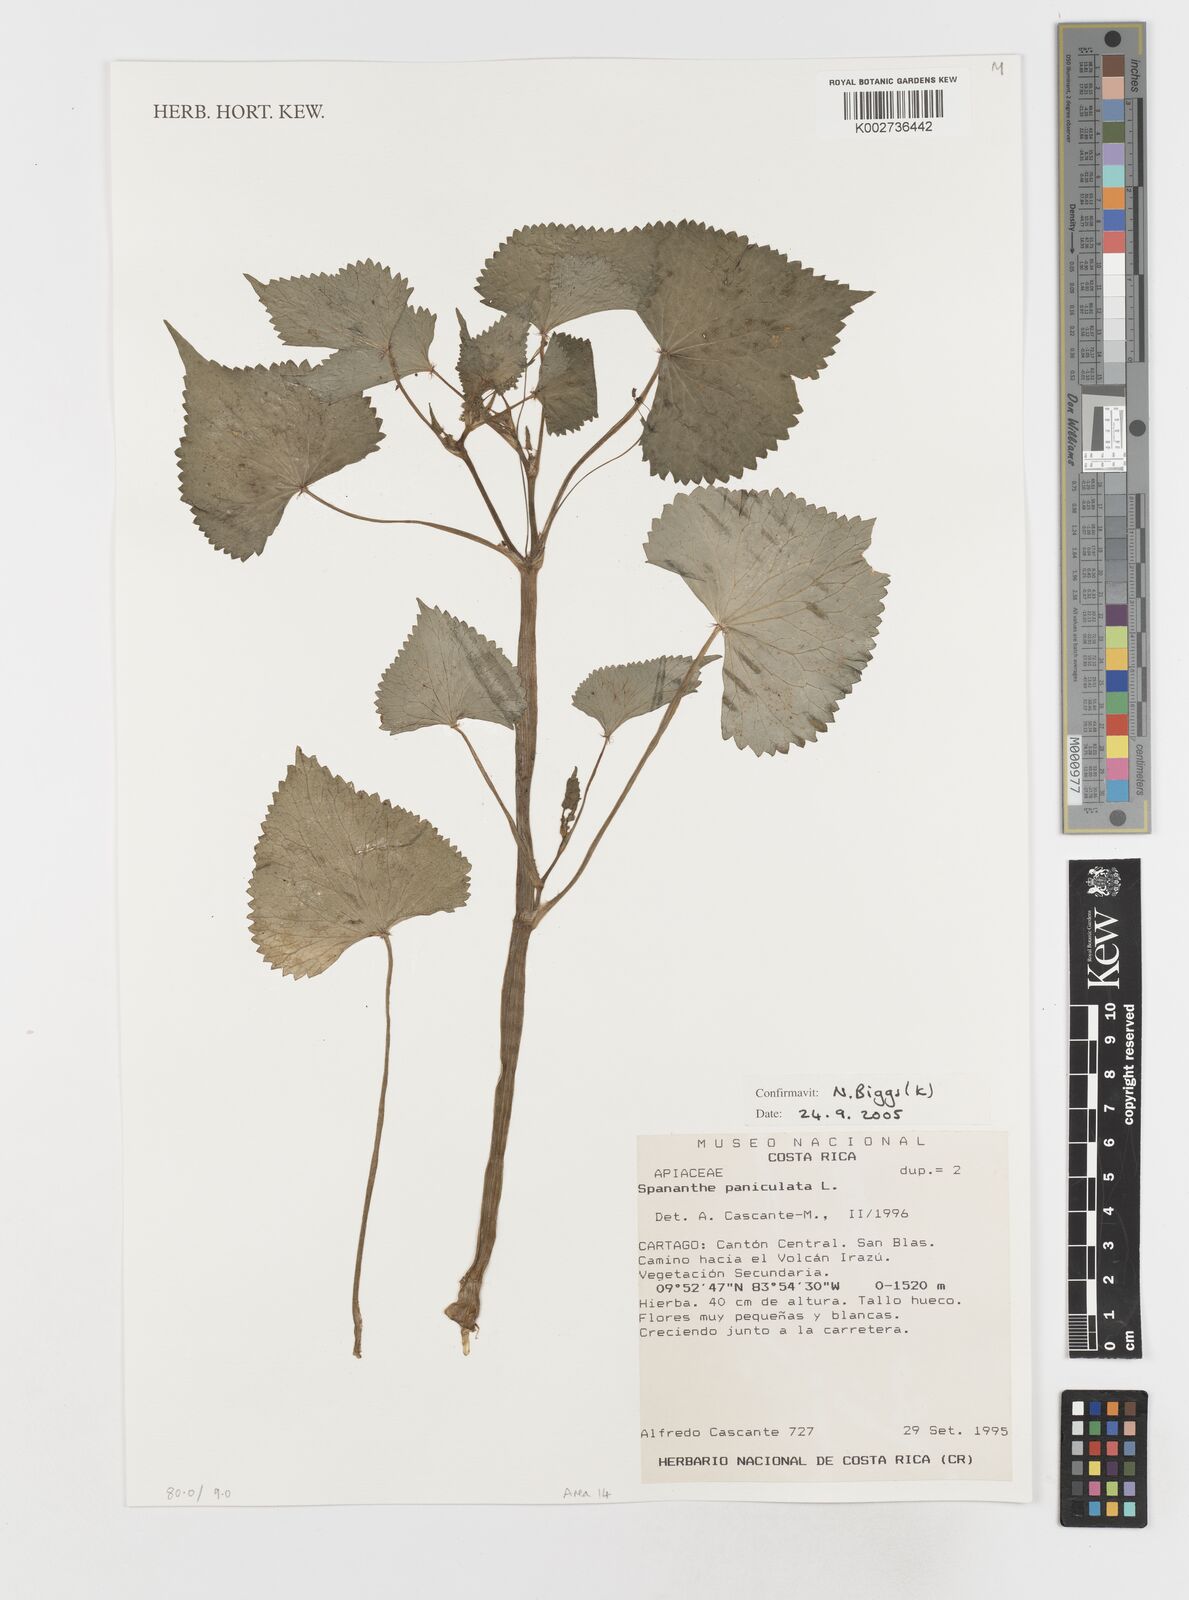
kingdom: Plantae
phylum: Tracheophyta
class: Magnoliopsida
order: Apiales
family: Apiaceae
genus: Spananthe
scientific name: Spananthe paniculata
